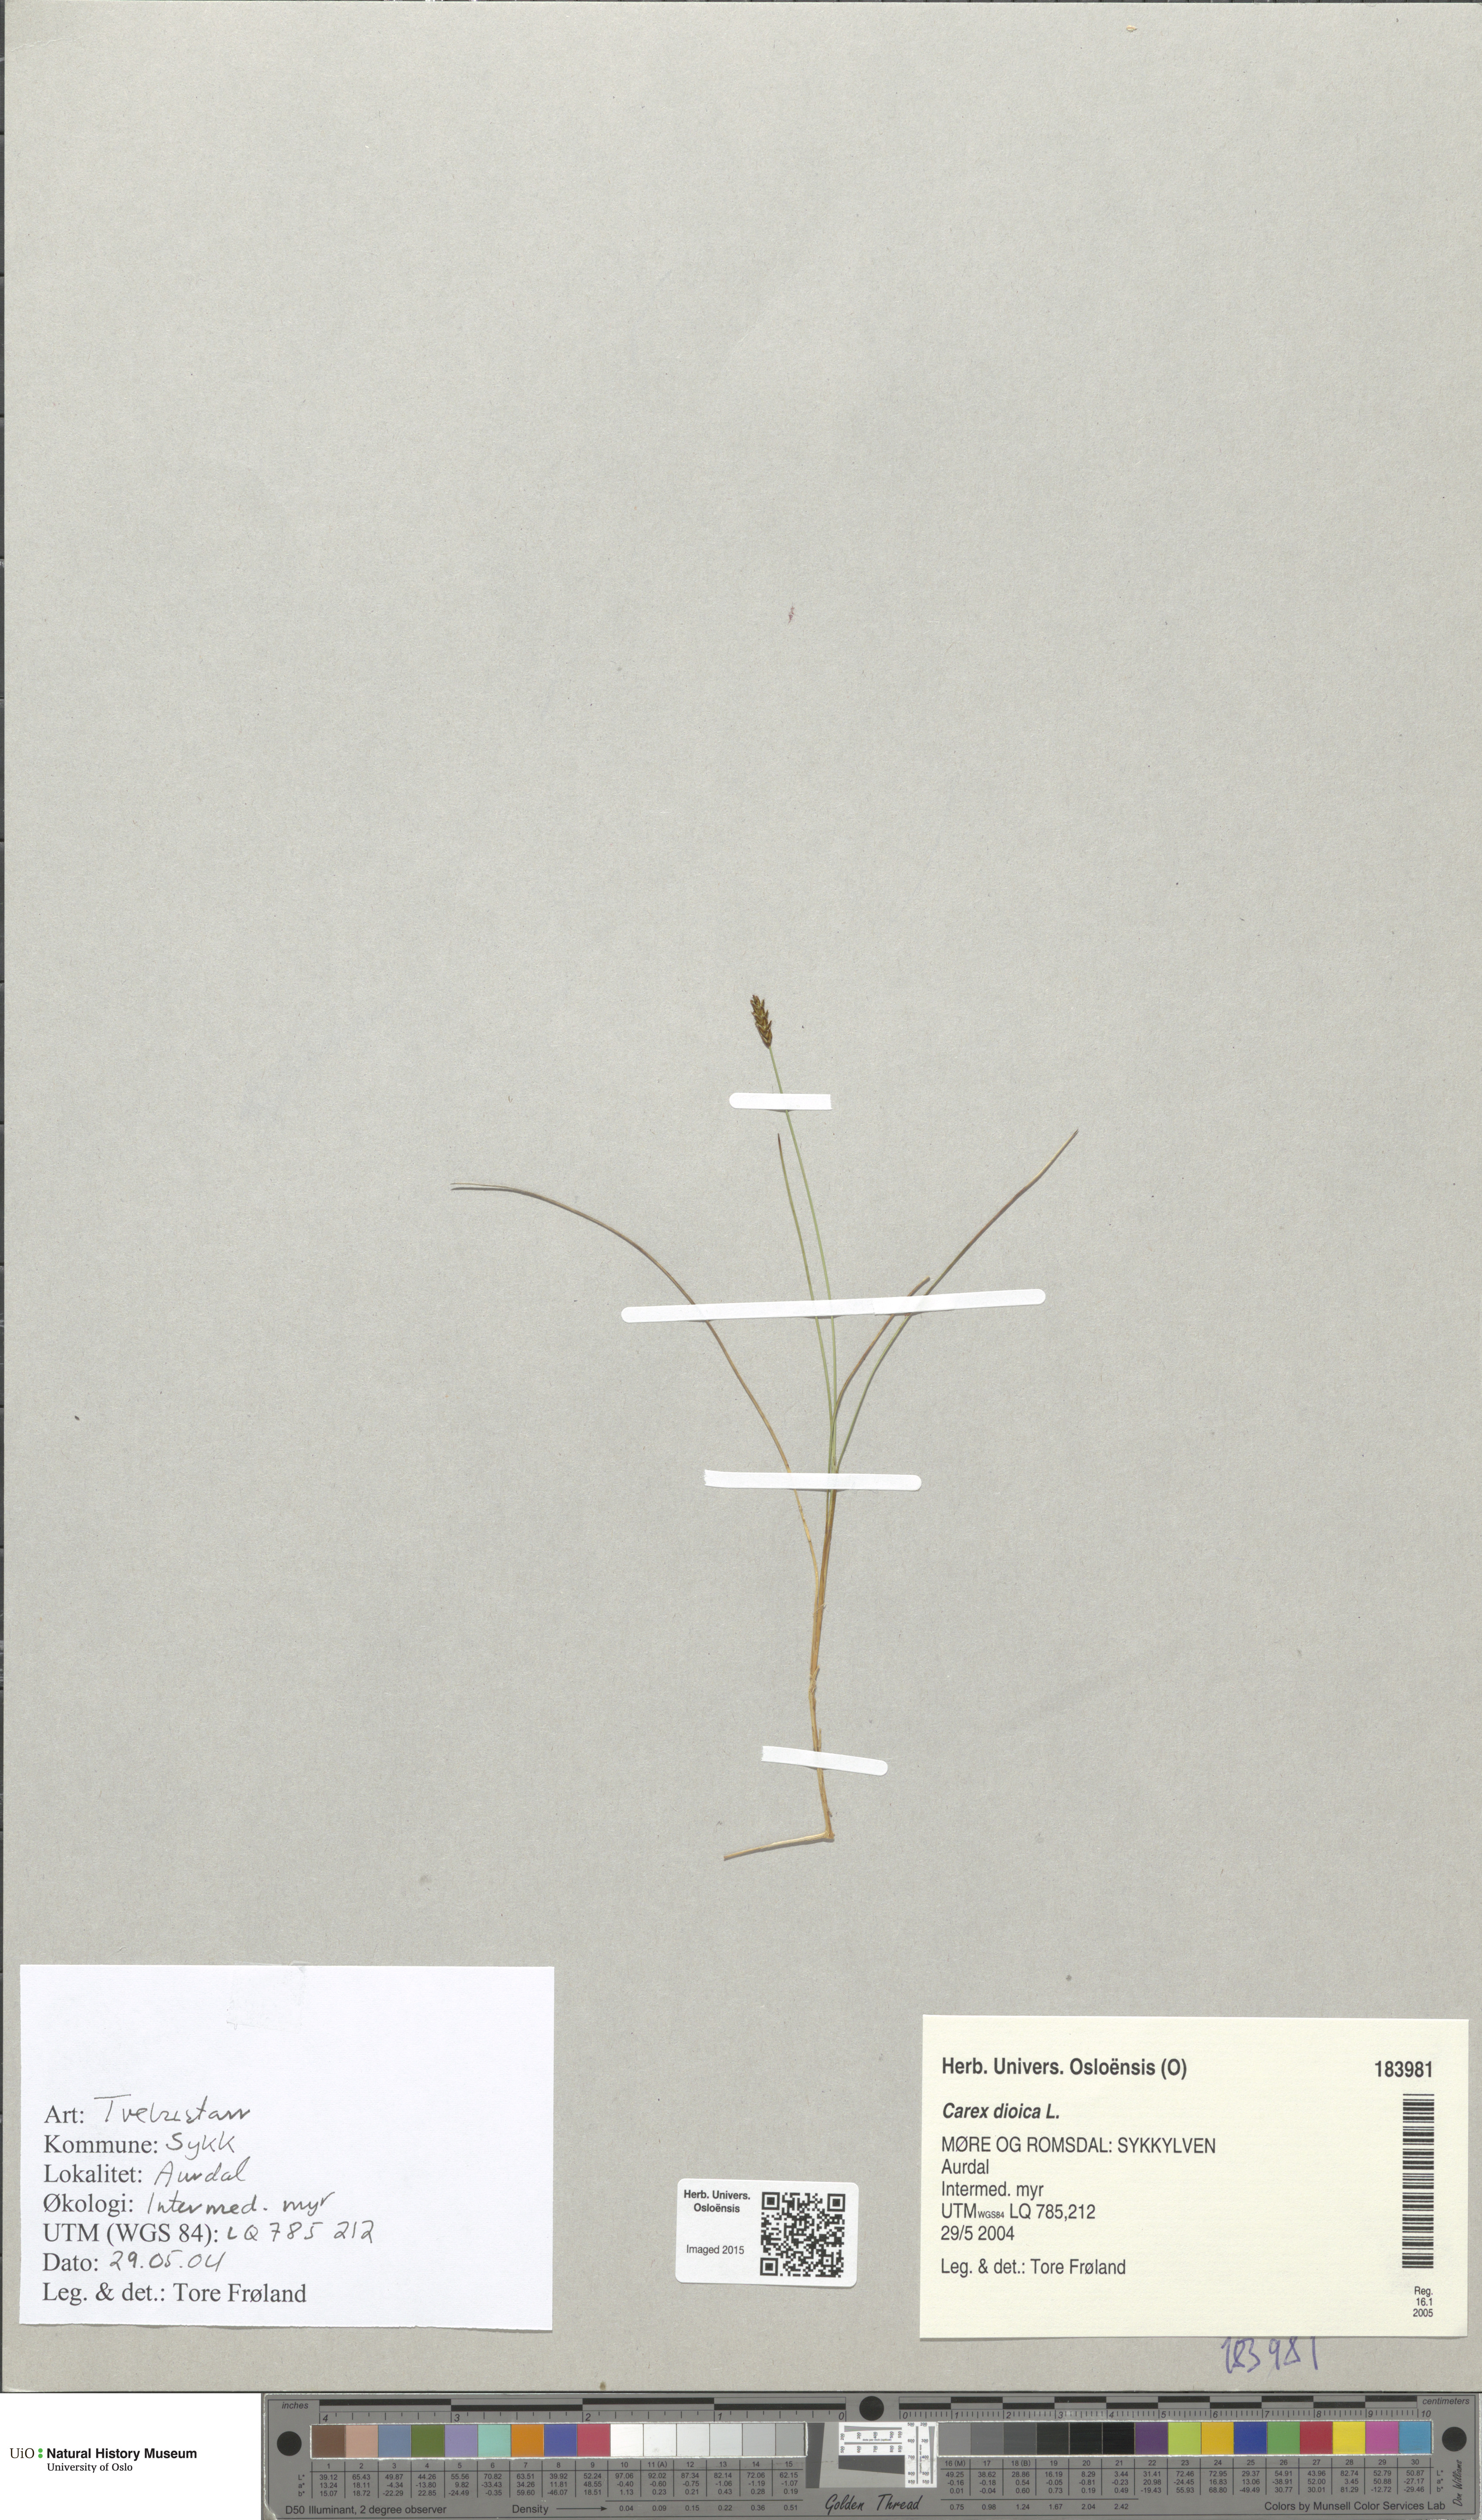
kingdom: Plantae
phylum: Tracheophyta
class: Liliopsida
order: Poales
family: Cyperaceae
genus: Carex
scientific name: Carex dioica
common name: Dioecious sedge
